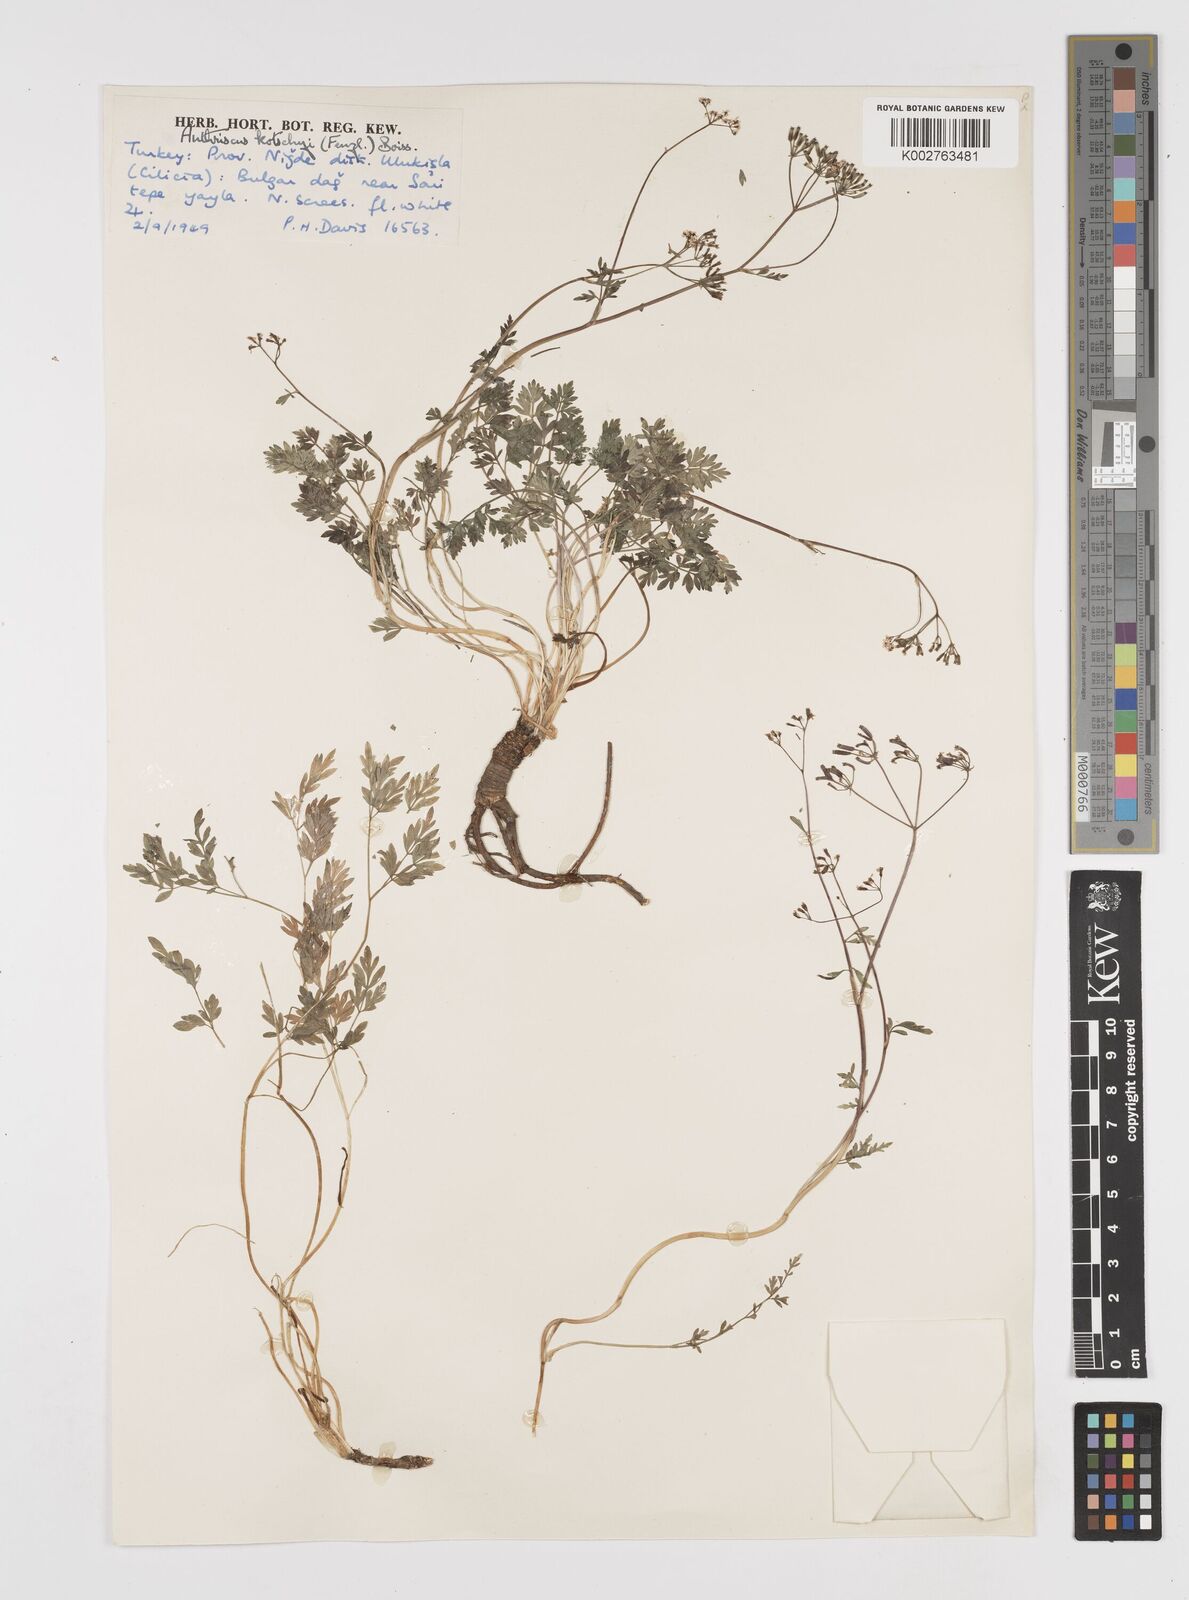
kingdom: Plantae
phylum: Tracheophyta
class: Magnoliopsida
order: Apiales
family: Apiaceae
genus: Anthriscus
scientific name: Anthriscus kotschyi
